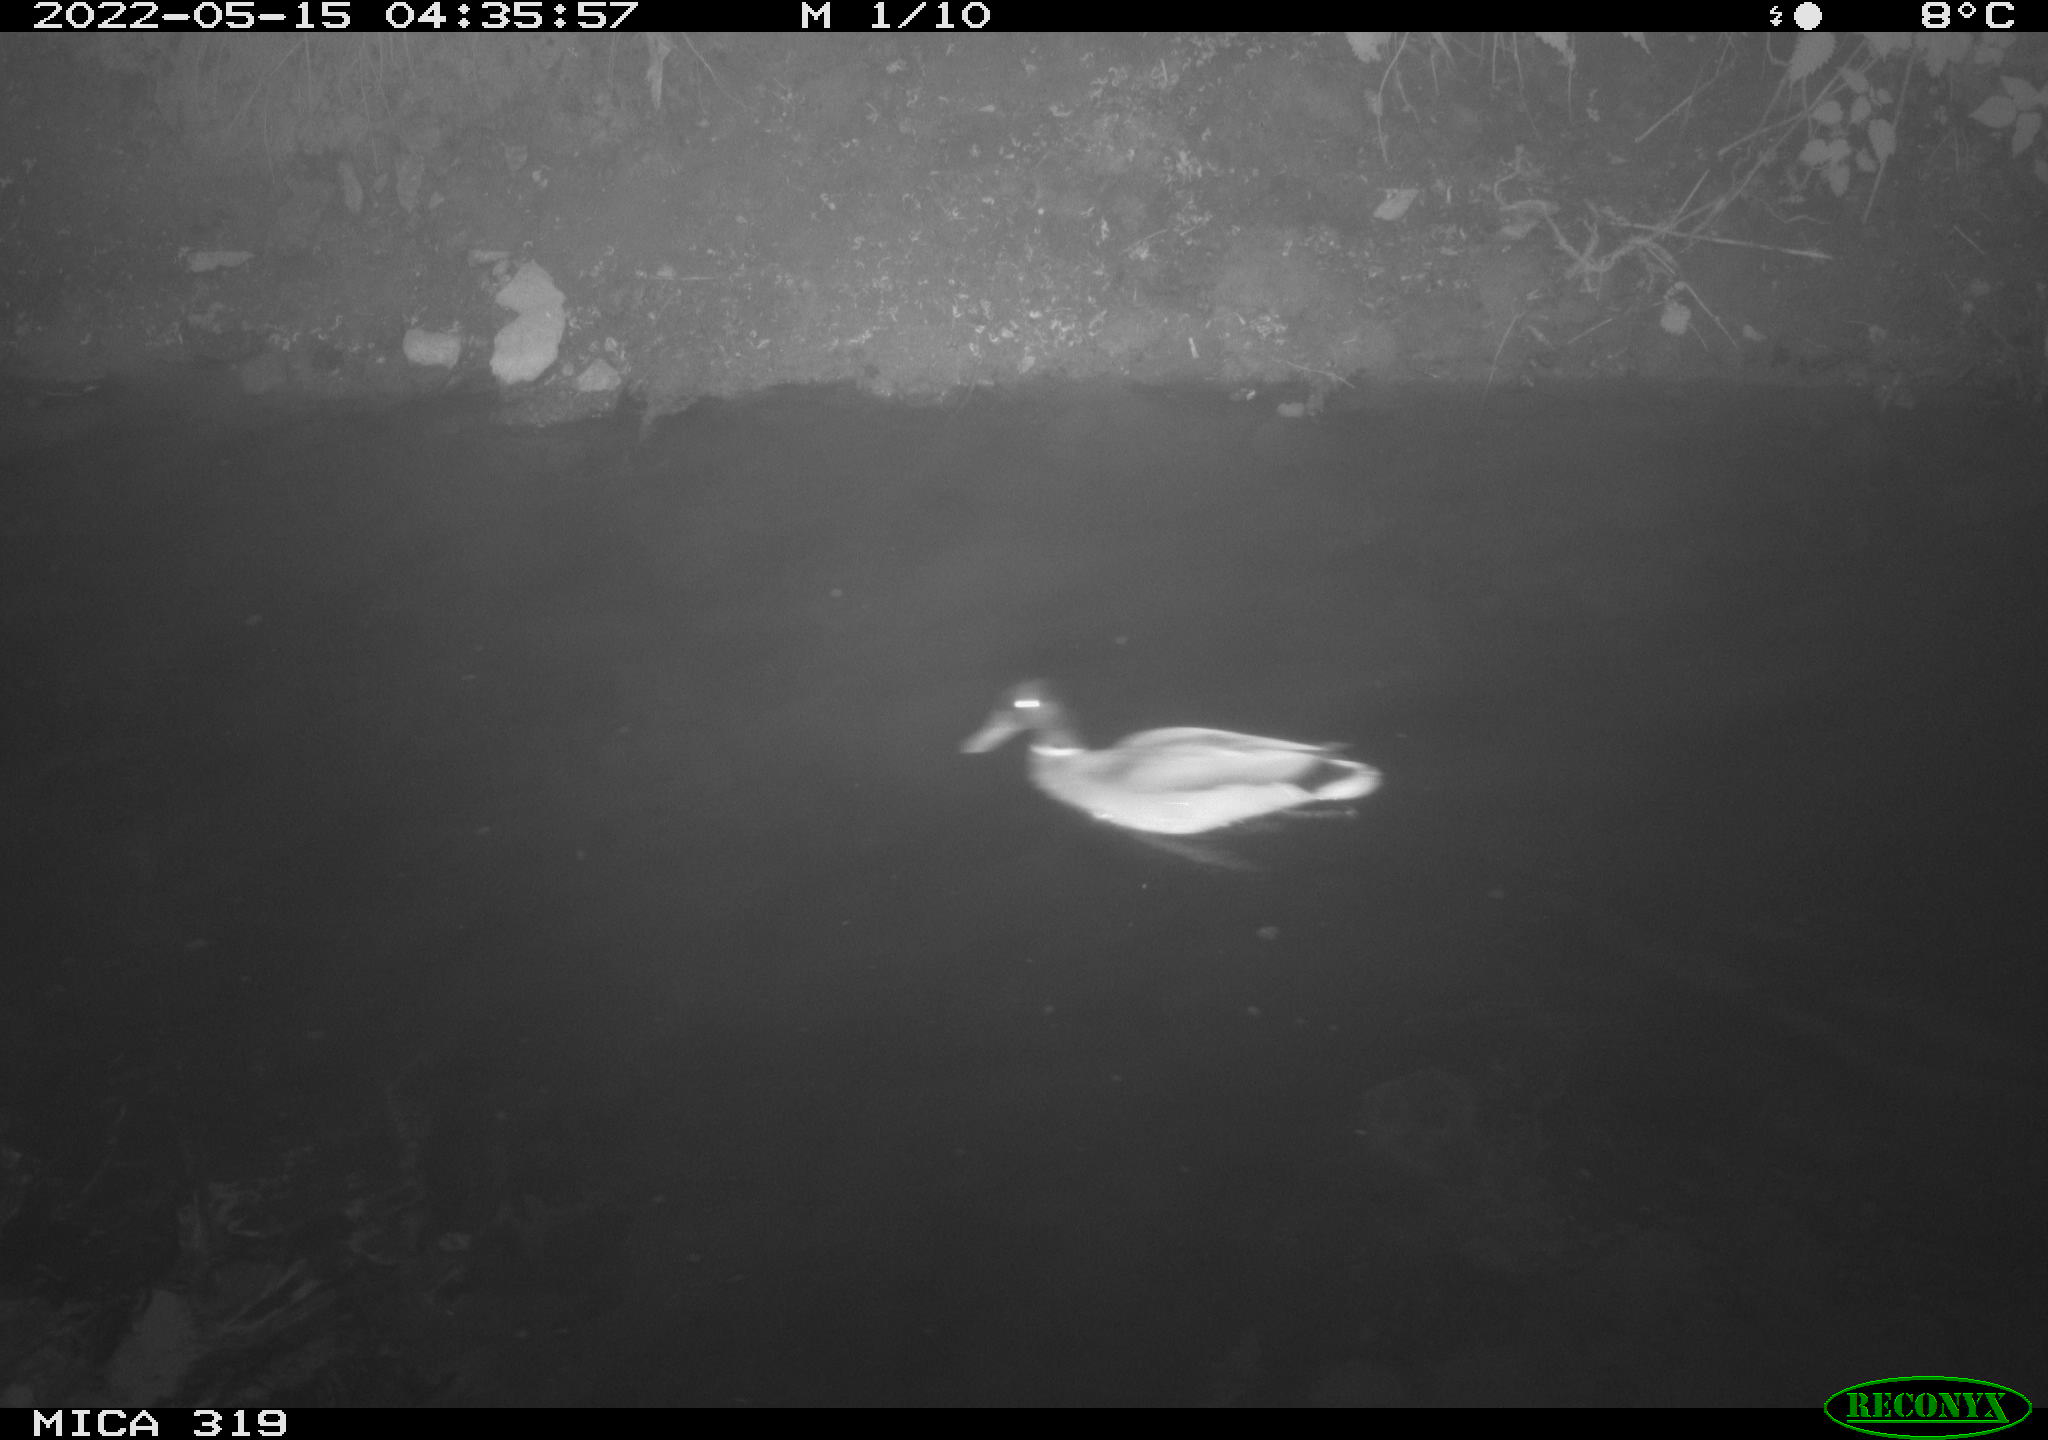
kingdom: Animalia
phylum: Chordata
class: Aves
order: Gruiformes
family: Rallidae
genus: Gallinula
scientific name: Gallinula chloropus
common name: Common moorhen
